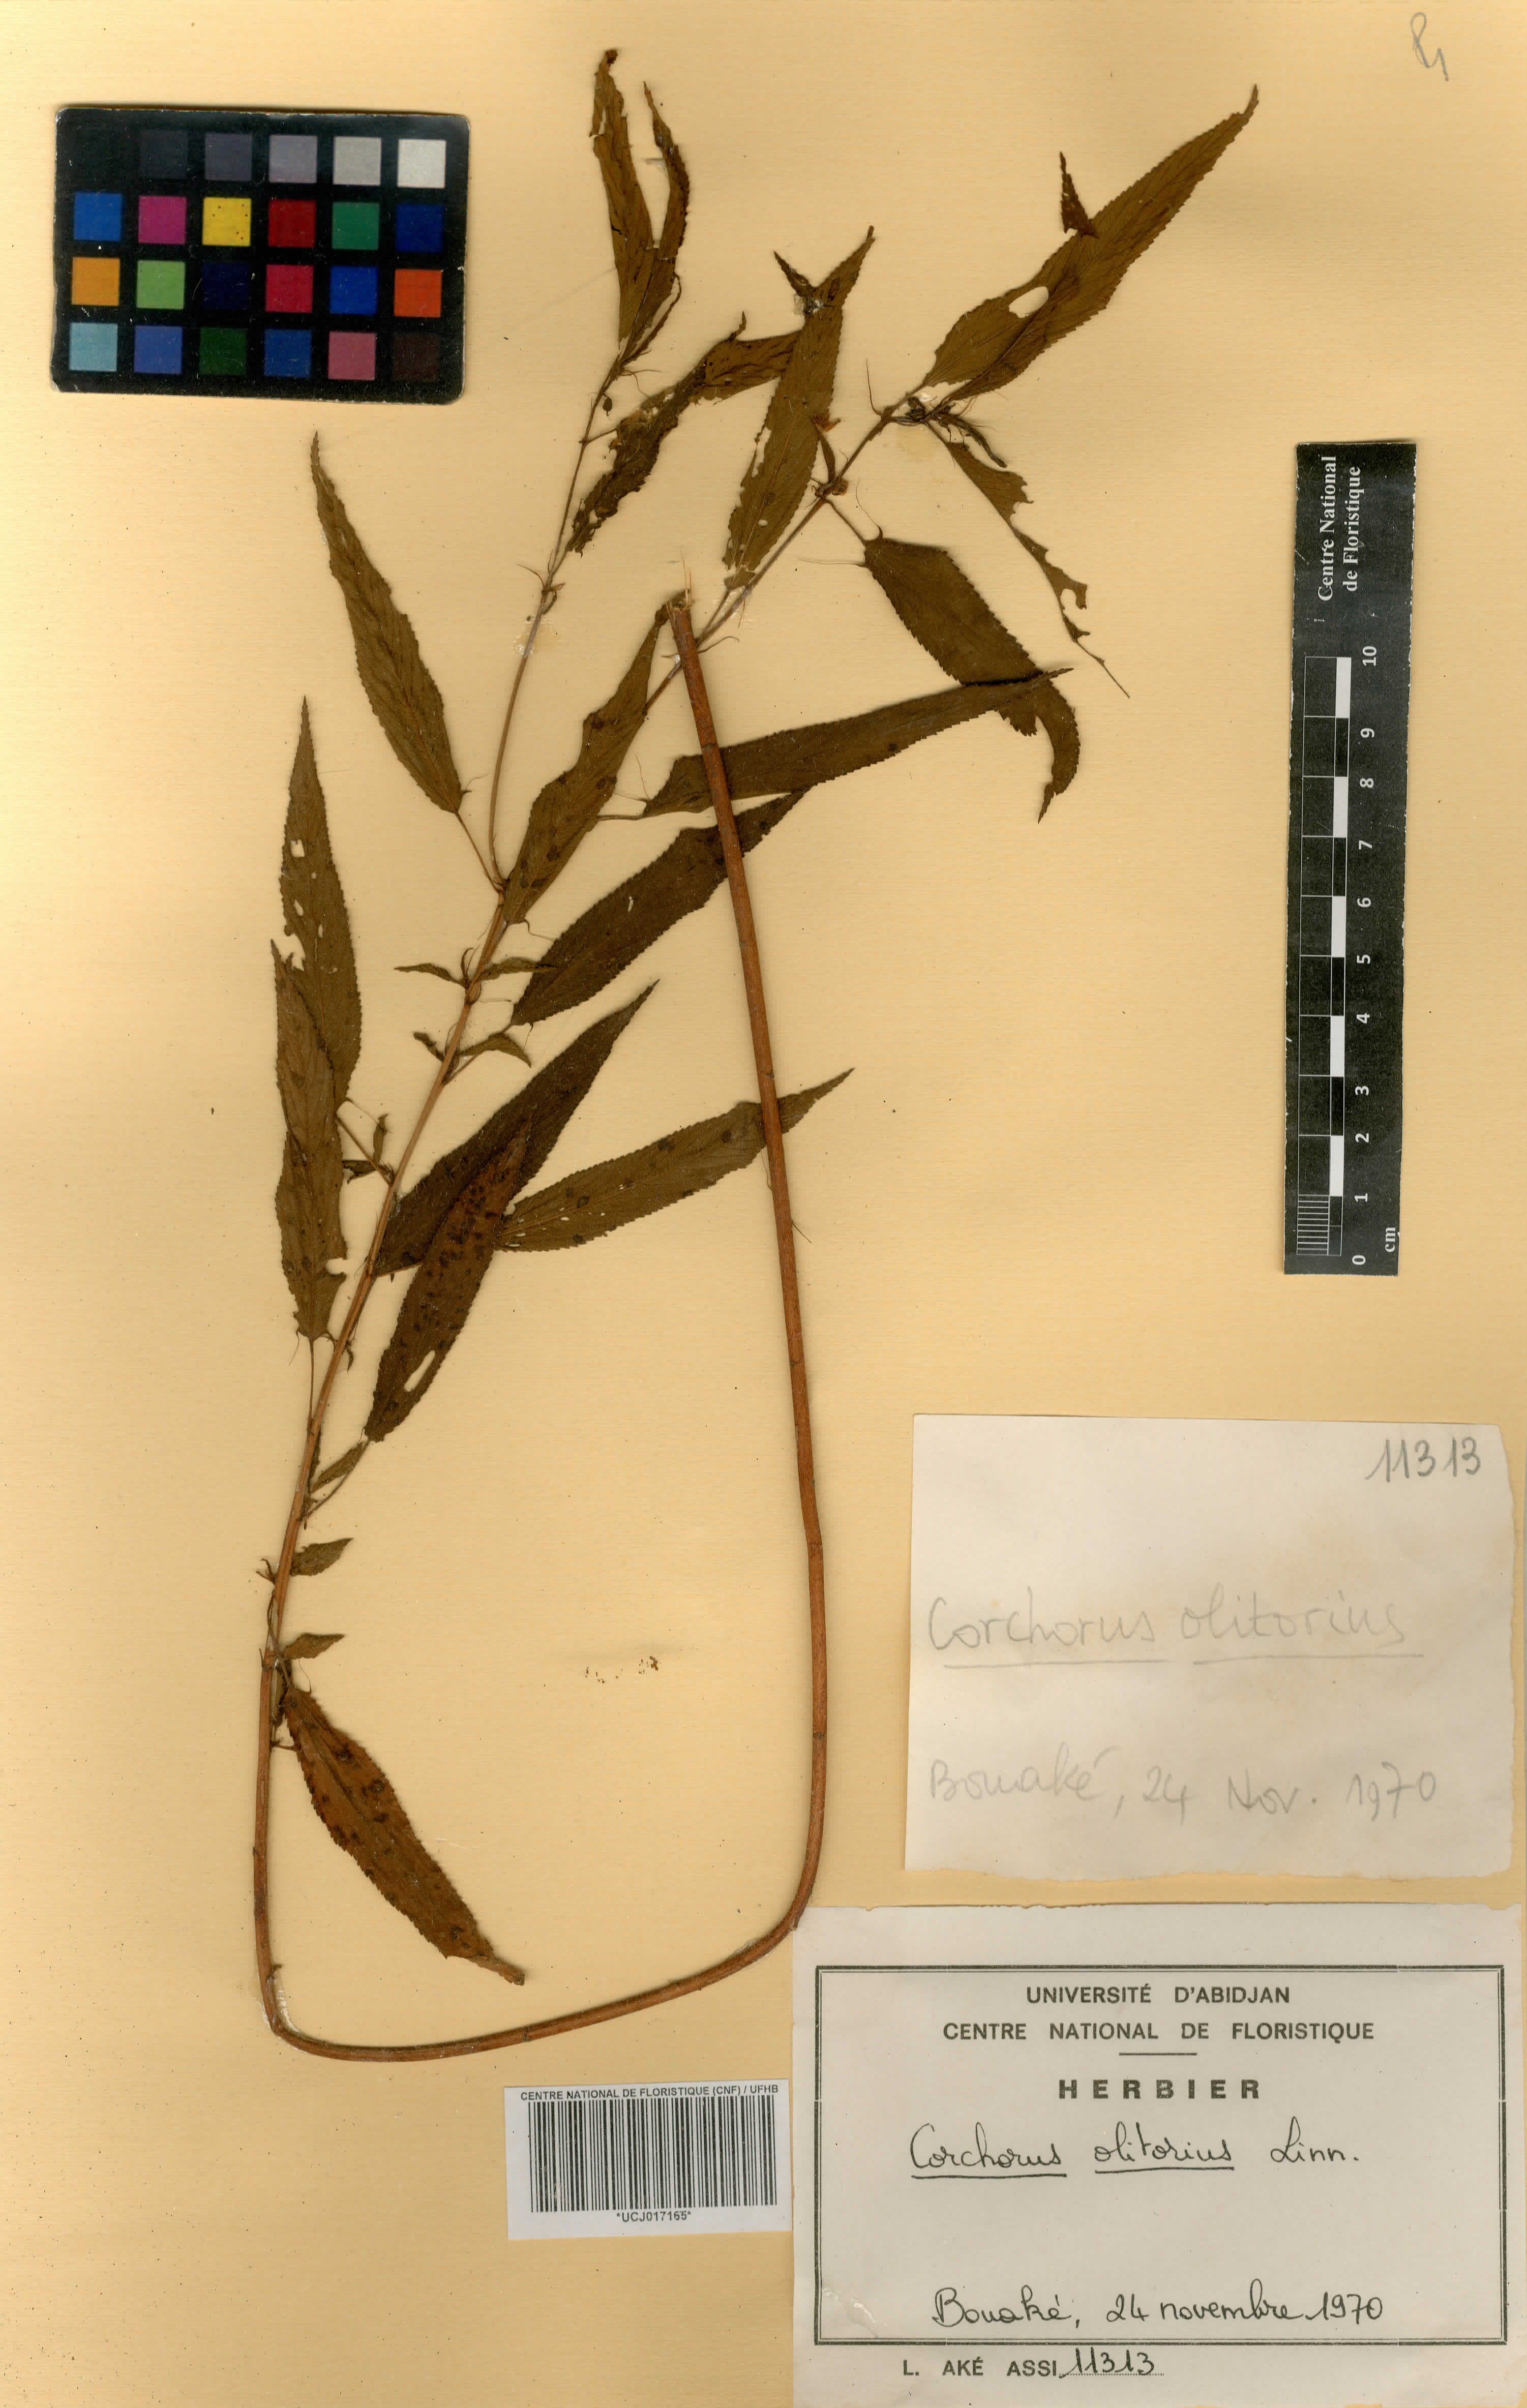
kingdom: Plantae
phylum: Tracheophyta
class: Magnoliopsida
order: Malvales
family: Malvaceae
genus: Corchorus
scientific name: Corchorus olitorius
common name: Tossa jute
